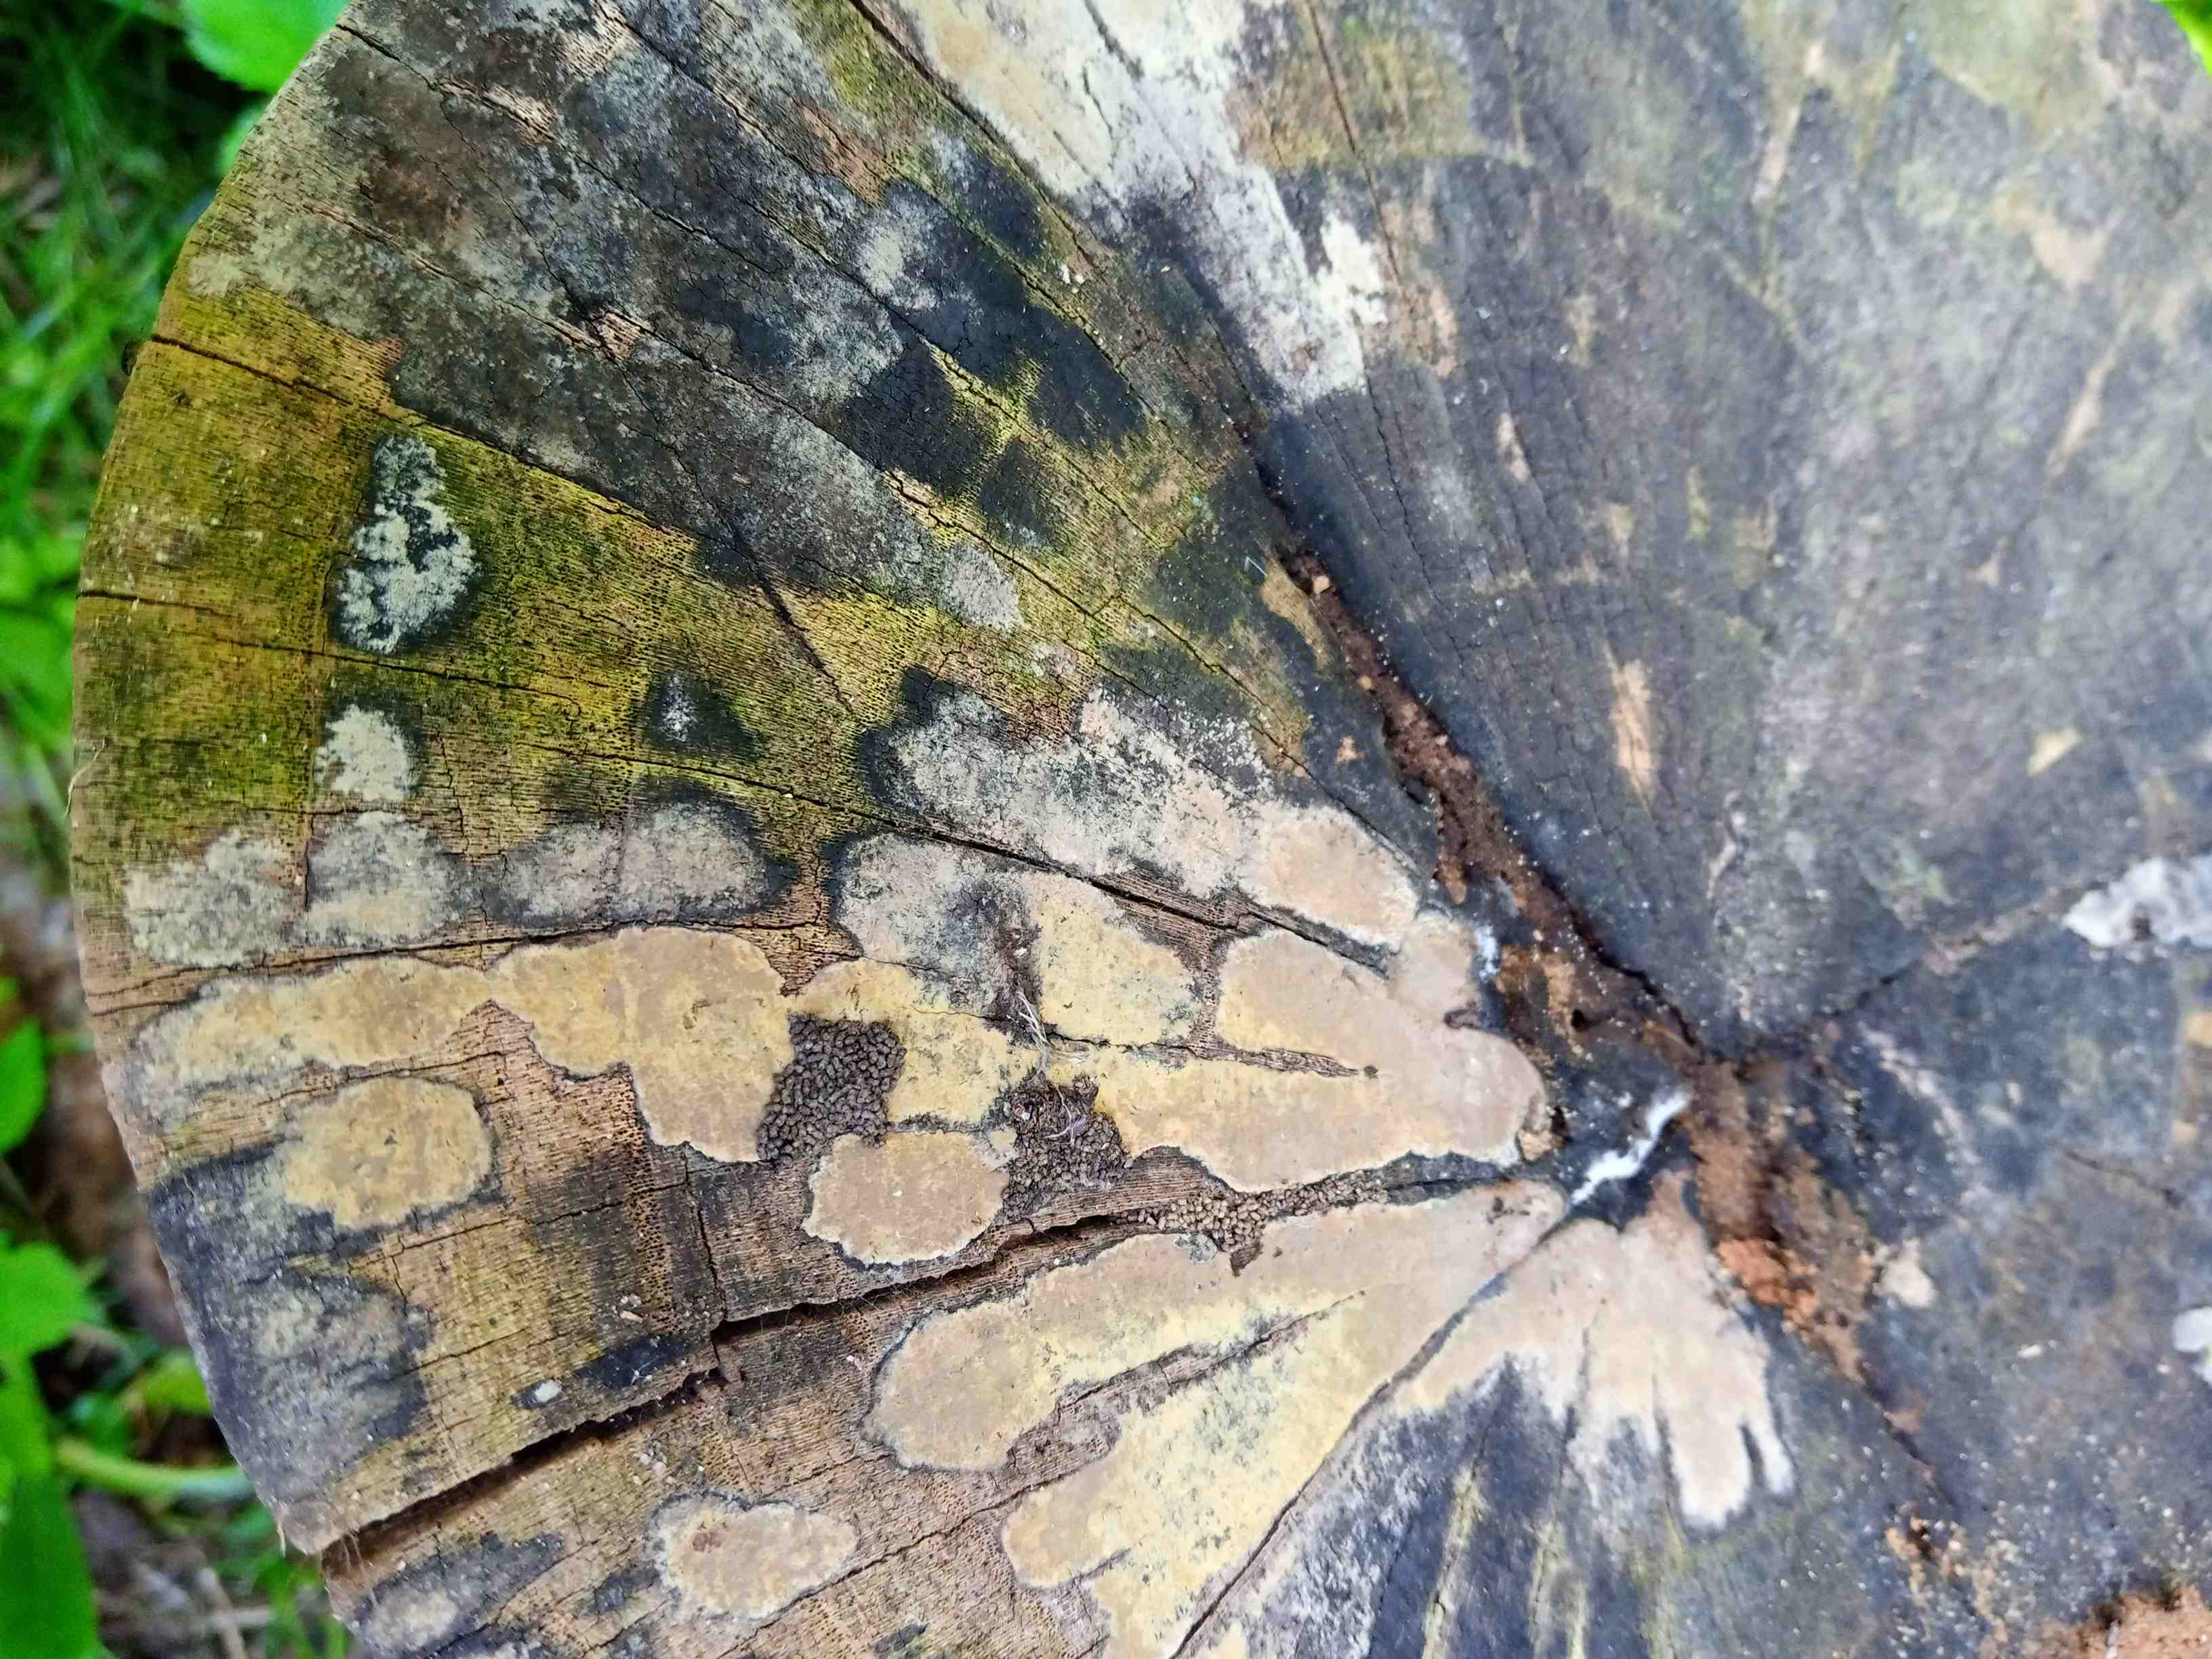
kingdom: Fungi
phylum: Ascomycota
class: Sordariomycetes
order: Xylariales
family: Hypoxylaceae
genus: Hypoxylon
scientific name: Hypoxylon
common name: kulbær
